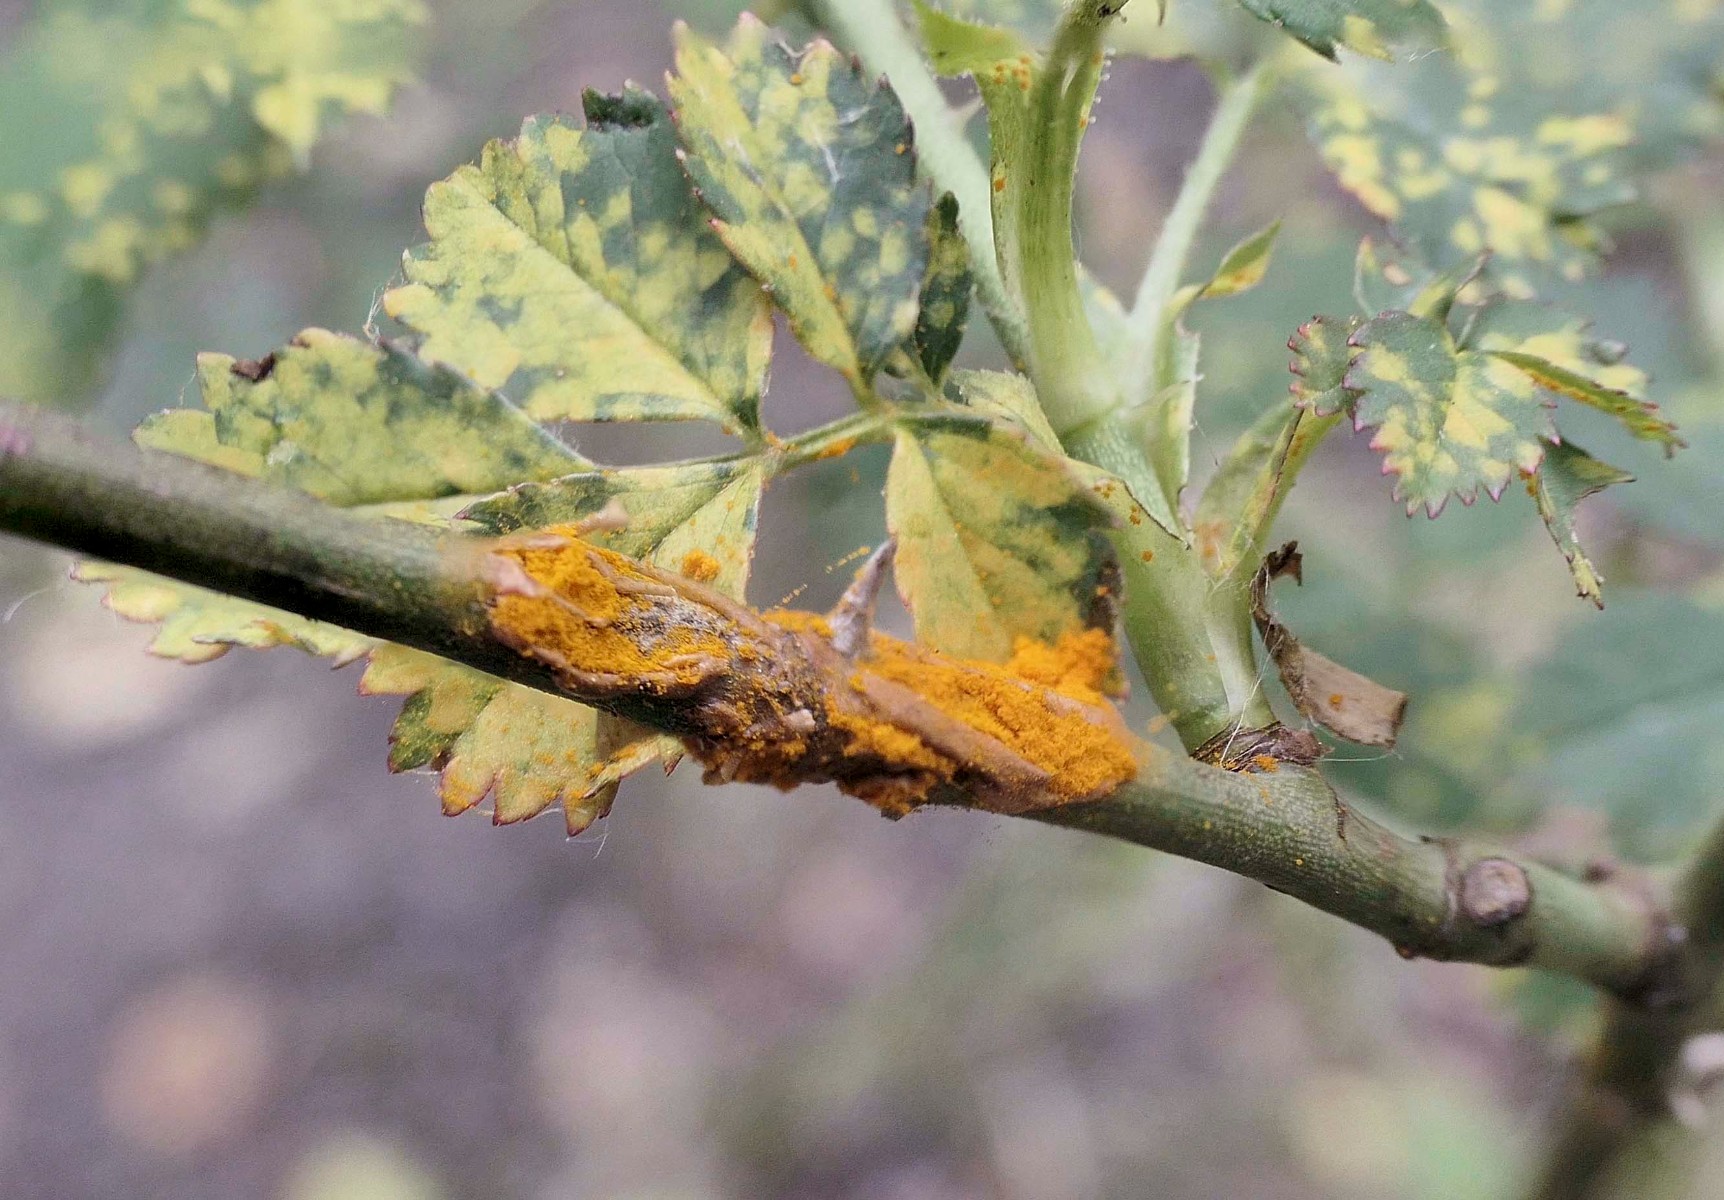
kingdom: Fungi
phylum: Basidiomycota
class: Pucciniomycetes
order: Pucciniales
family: Phragmidiaceae
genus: Phragmidium
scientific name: Phragmidium
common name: flercellerust
